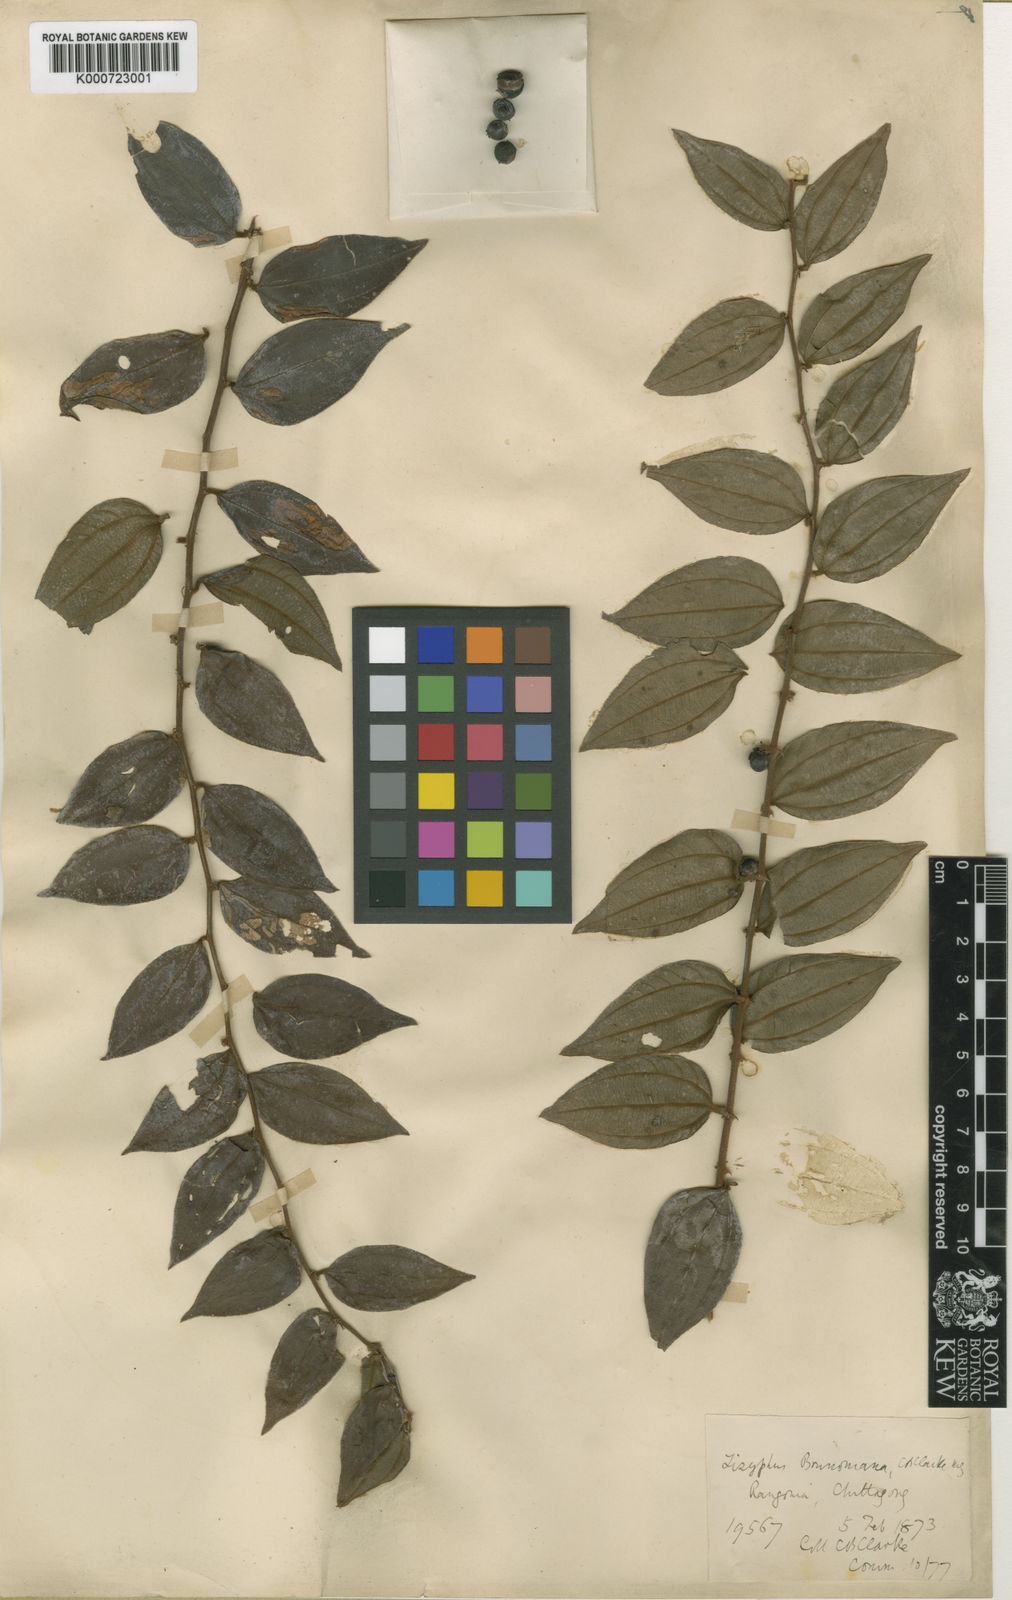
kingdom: Plantae
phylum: Tracheophyta
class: Magnoliopsida
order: Rosales
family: Rhamnaceae
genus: Ziziphus
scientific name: Ziziphus
